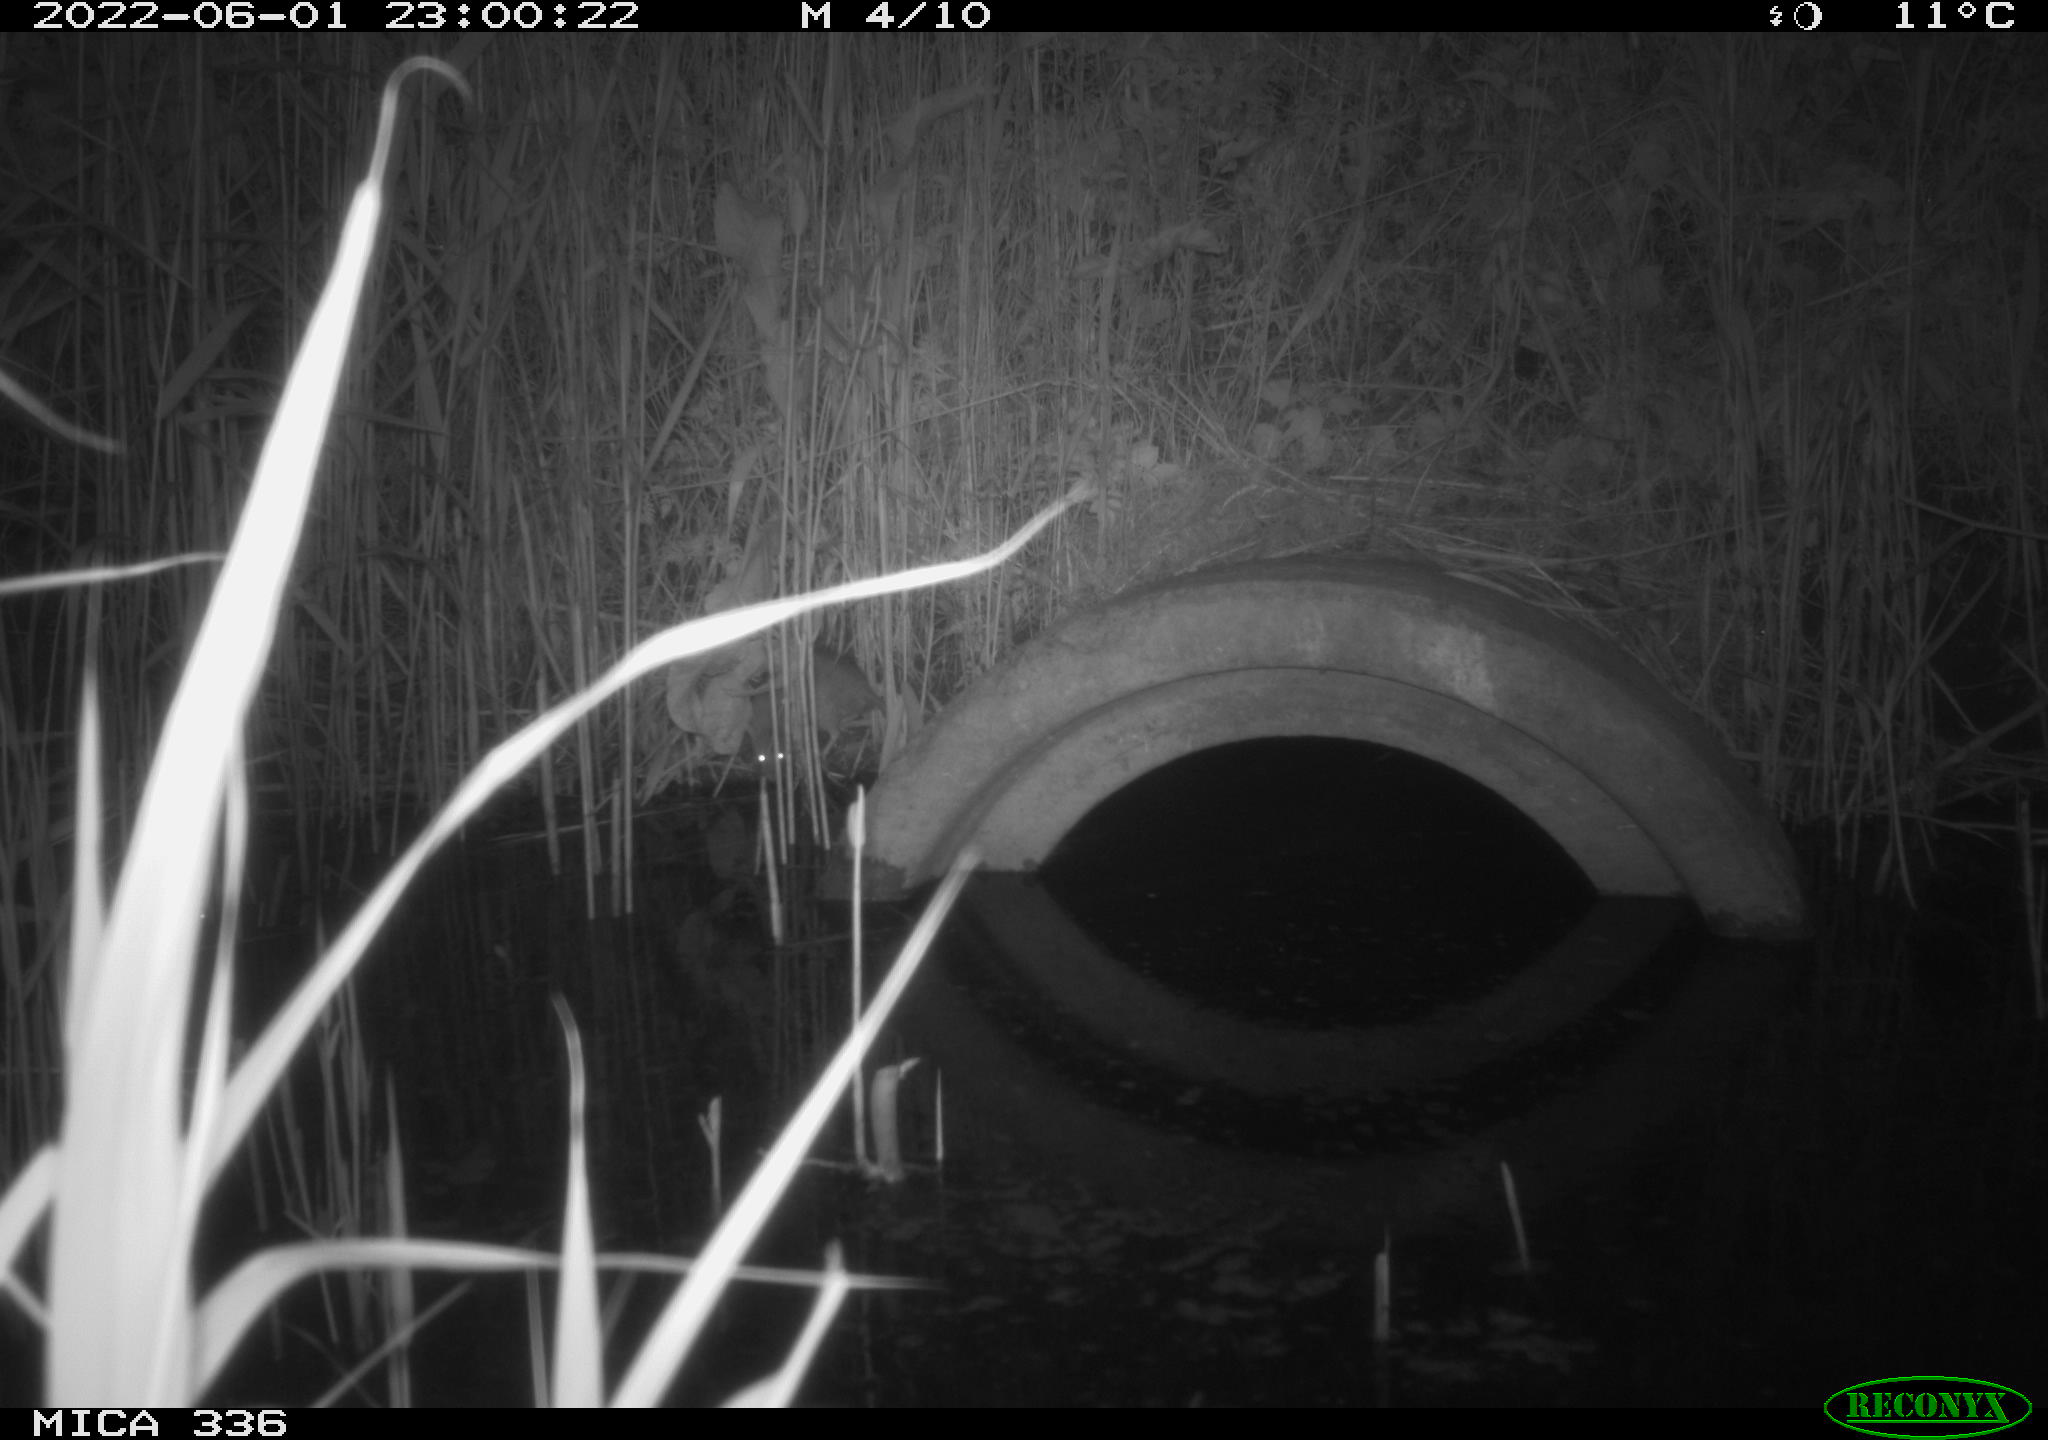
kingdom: Animalia
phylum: Chordata
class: Mammalia
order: Rodentia
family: Muridae
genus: Rattus
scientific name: Rattus norvegicus
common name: Brown rat
